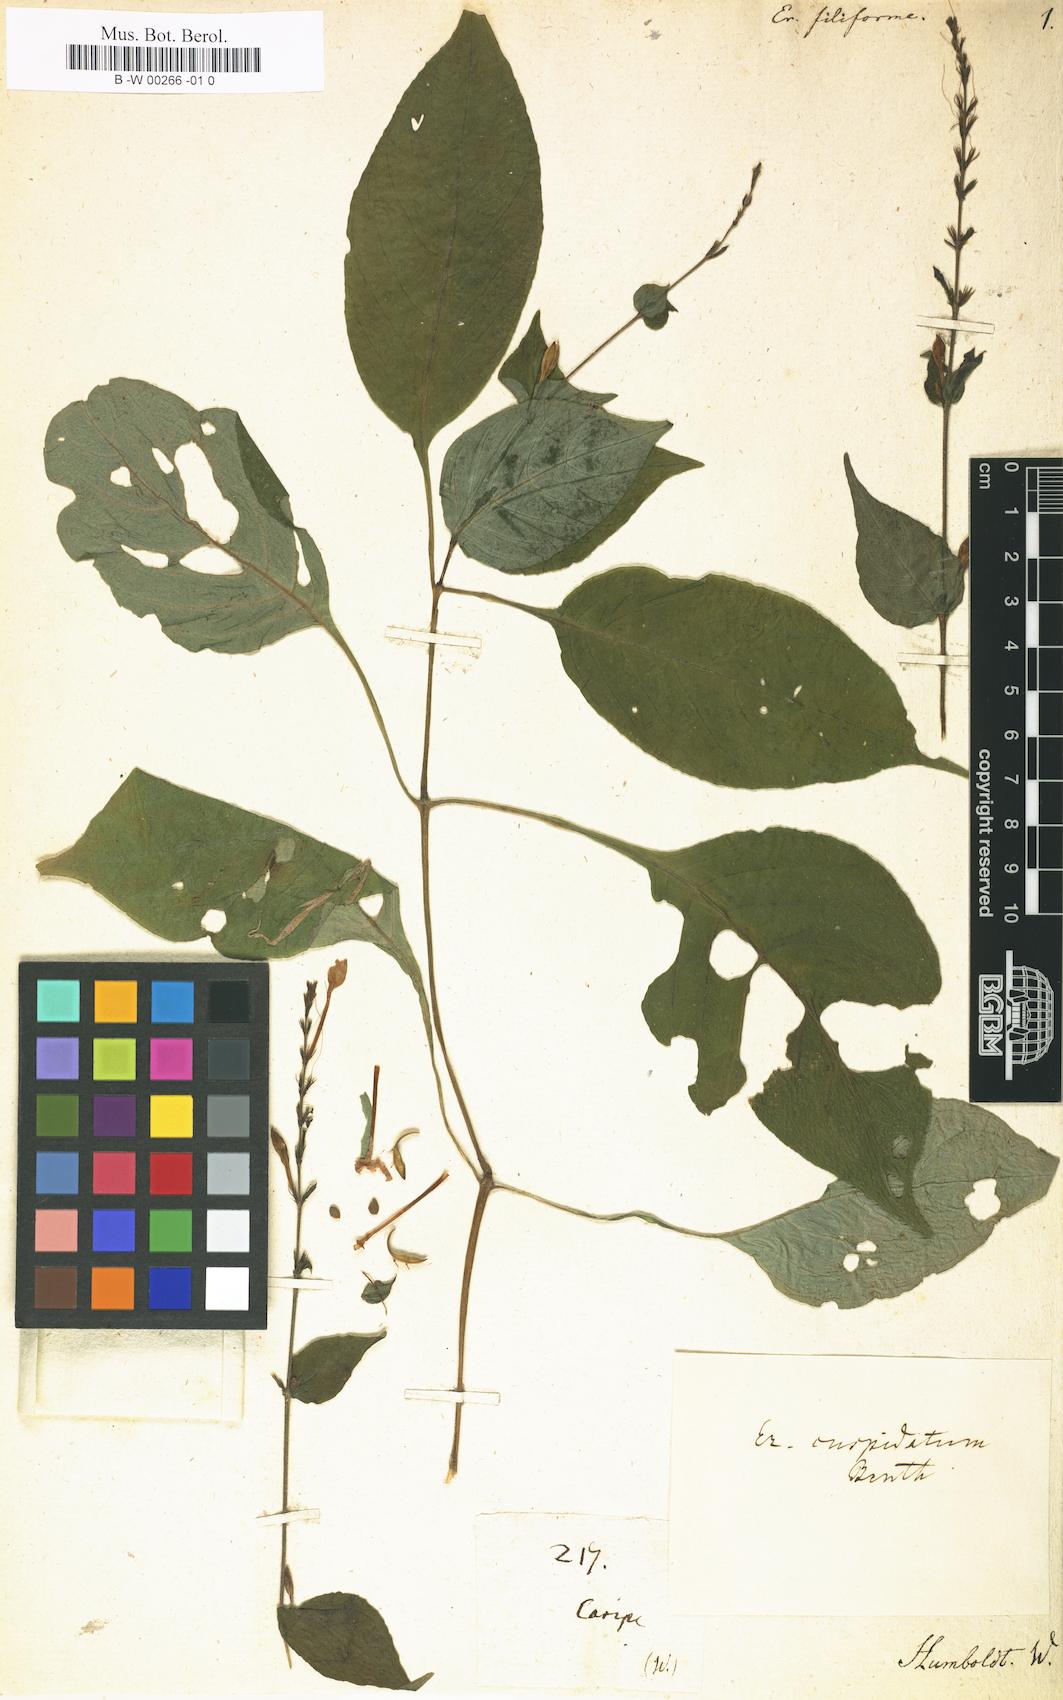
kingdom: Plantae
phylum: Tracheophyta
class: Magnoliopsida
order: Lamiales
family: Acanthaceae
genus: Pseuderanthemum
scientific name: Pseuderanthemum cuspidatum
